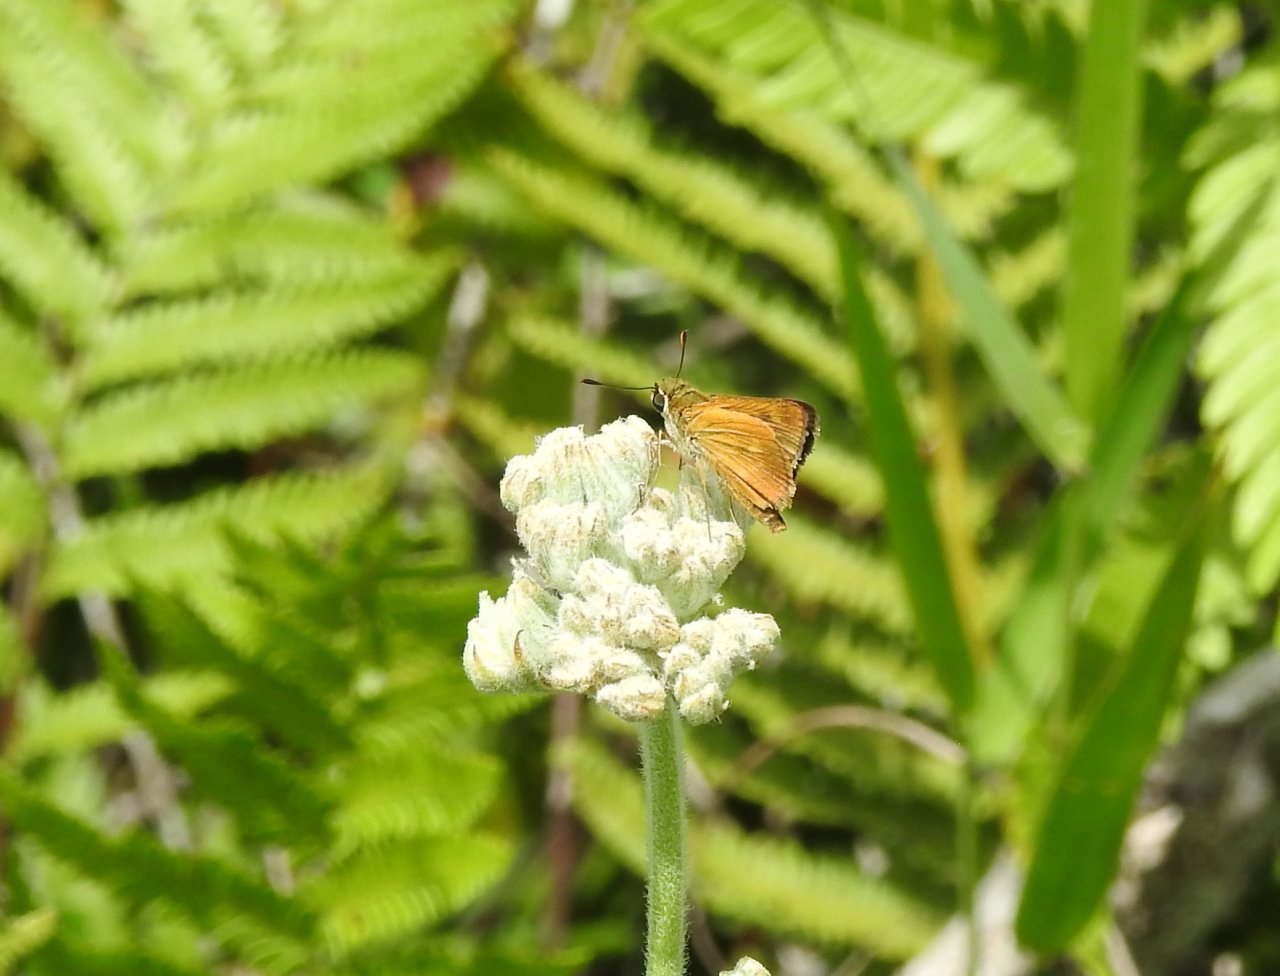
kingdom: Animalia
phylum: Arthropoda
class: Insecta
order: Lepidoptera
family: Hesperiidae
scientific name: Hesperiidae
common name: Skippers
